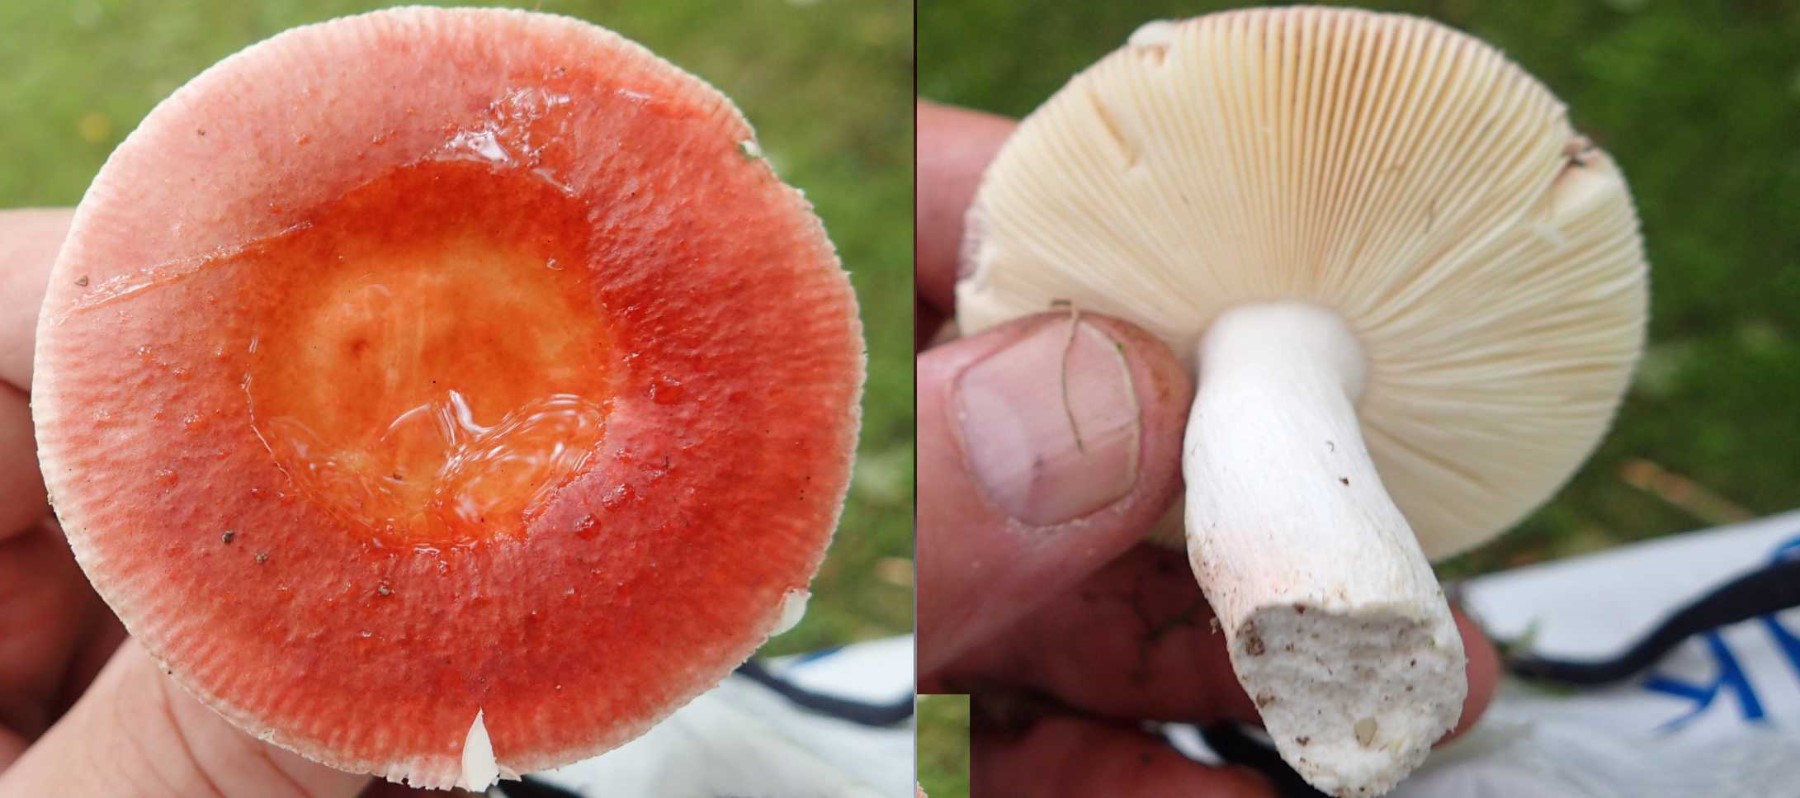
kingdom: Fungi
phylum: Basidiomycota
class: Agaricomycetes
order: Russulales
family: Russulaceae
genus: Russula
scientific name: Russula velenovskyi
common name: orangerød skørhat
